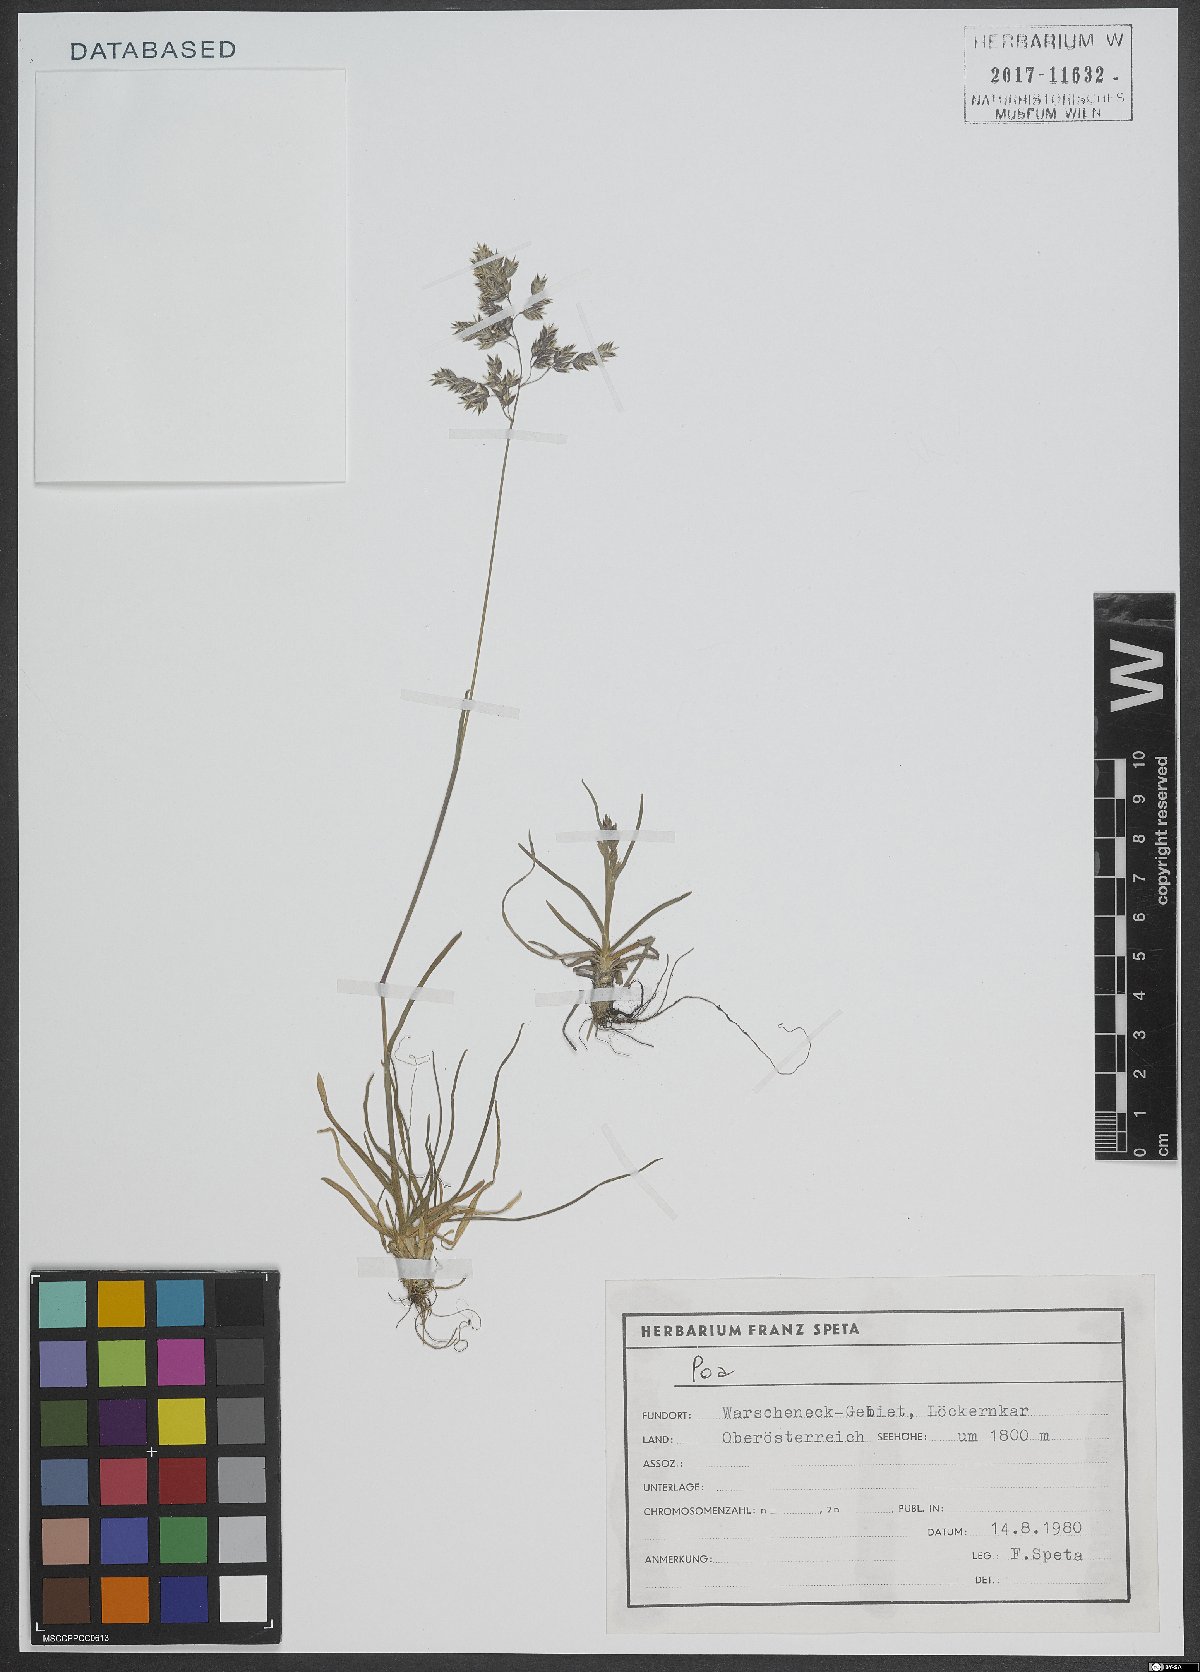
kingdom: Plantae
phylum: Tracheophyta
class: Liliopsida
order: Poales
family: Poaceae
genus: Poa
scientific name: Poa
